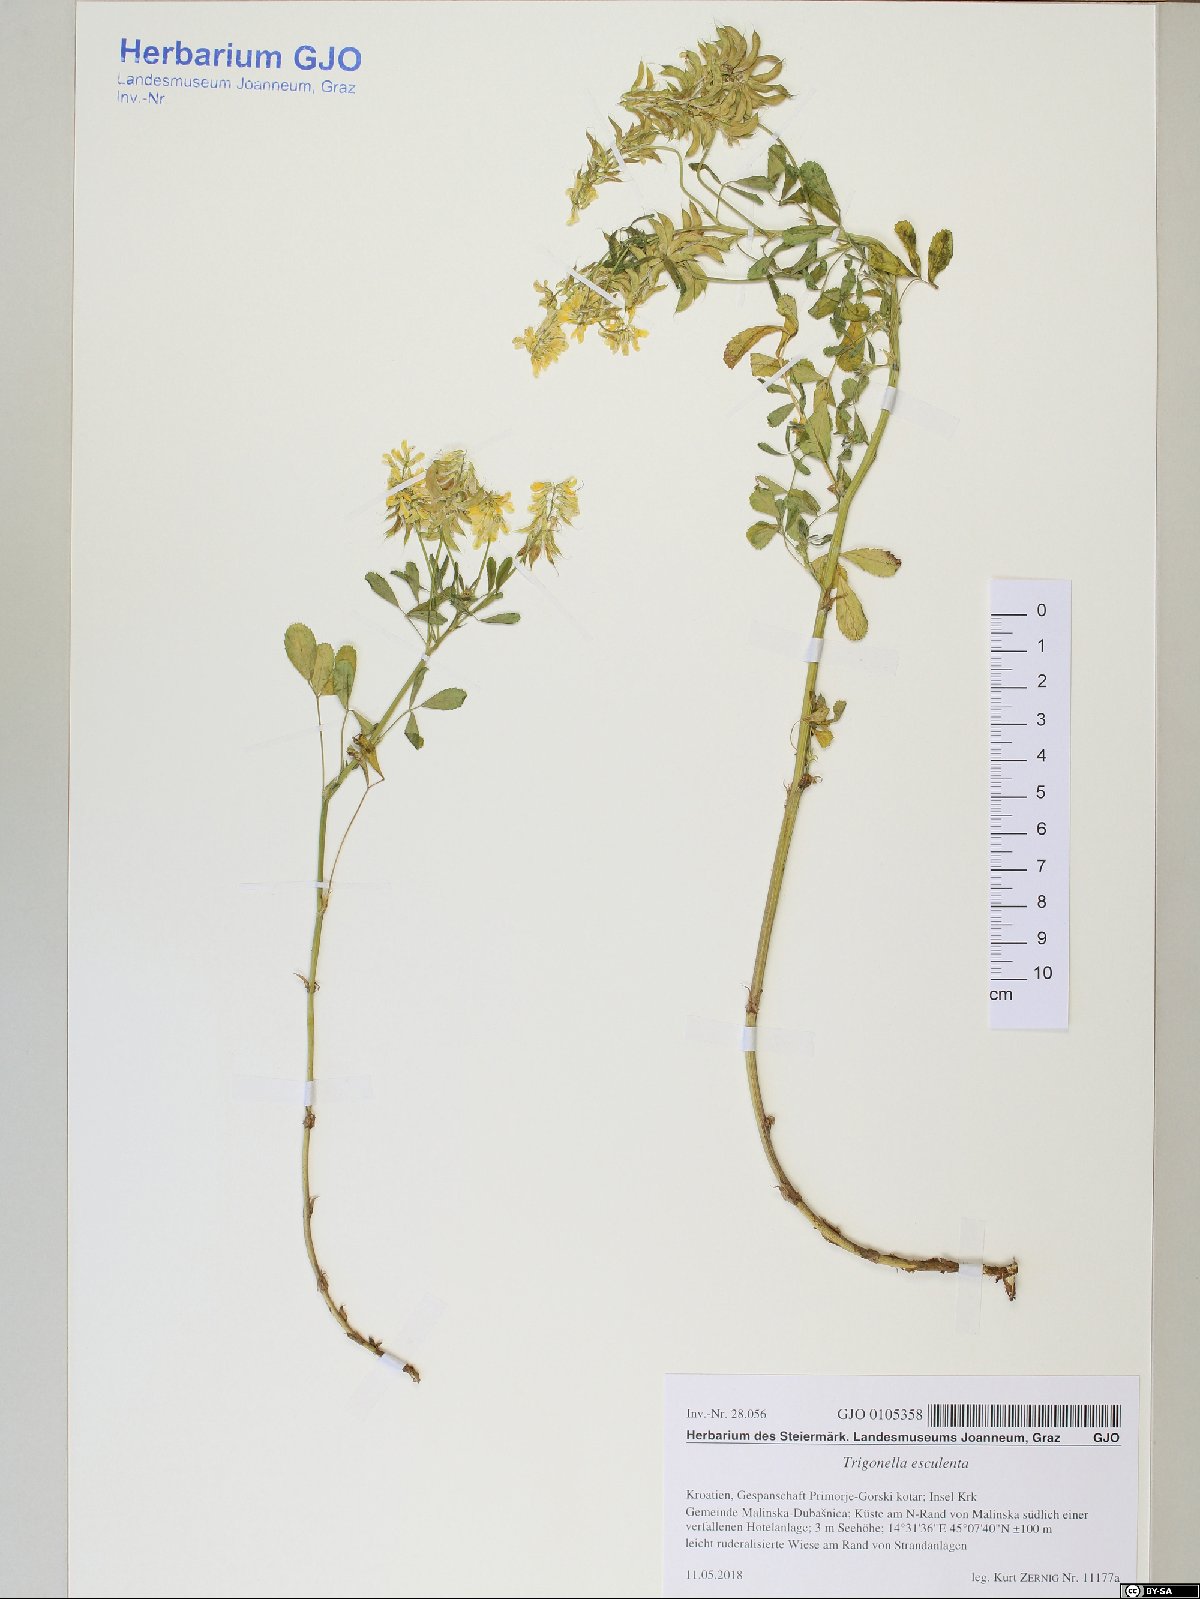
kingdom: Plantae
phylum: Tracheophyta
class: Magnoliopsida
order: Fabales
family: Fabaceae
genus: Trigonella
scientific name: Trigonella esculenta
